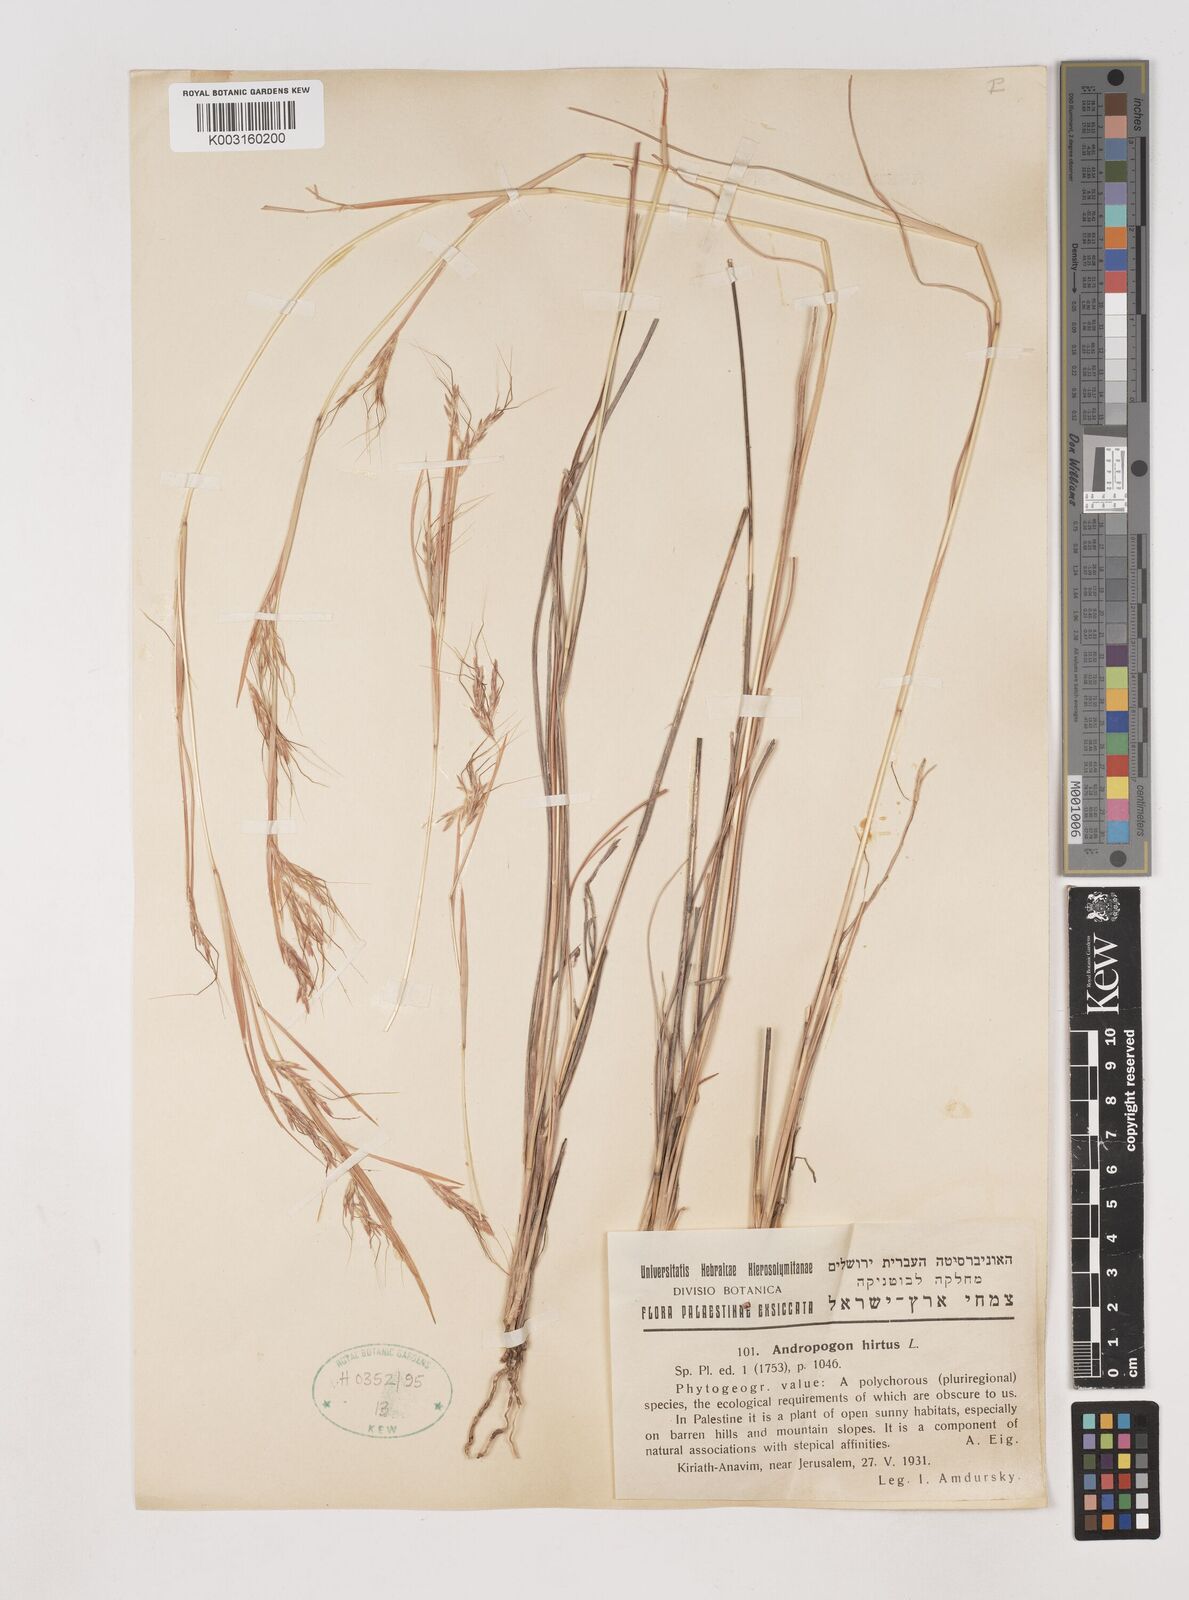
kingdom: Plantae
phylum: Tracheophyta
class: Liliopsida
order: Poales
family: Poaceae
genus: Hyparrhenia
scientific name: Hyparrhenia hirta
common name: Thatching grass
